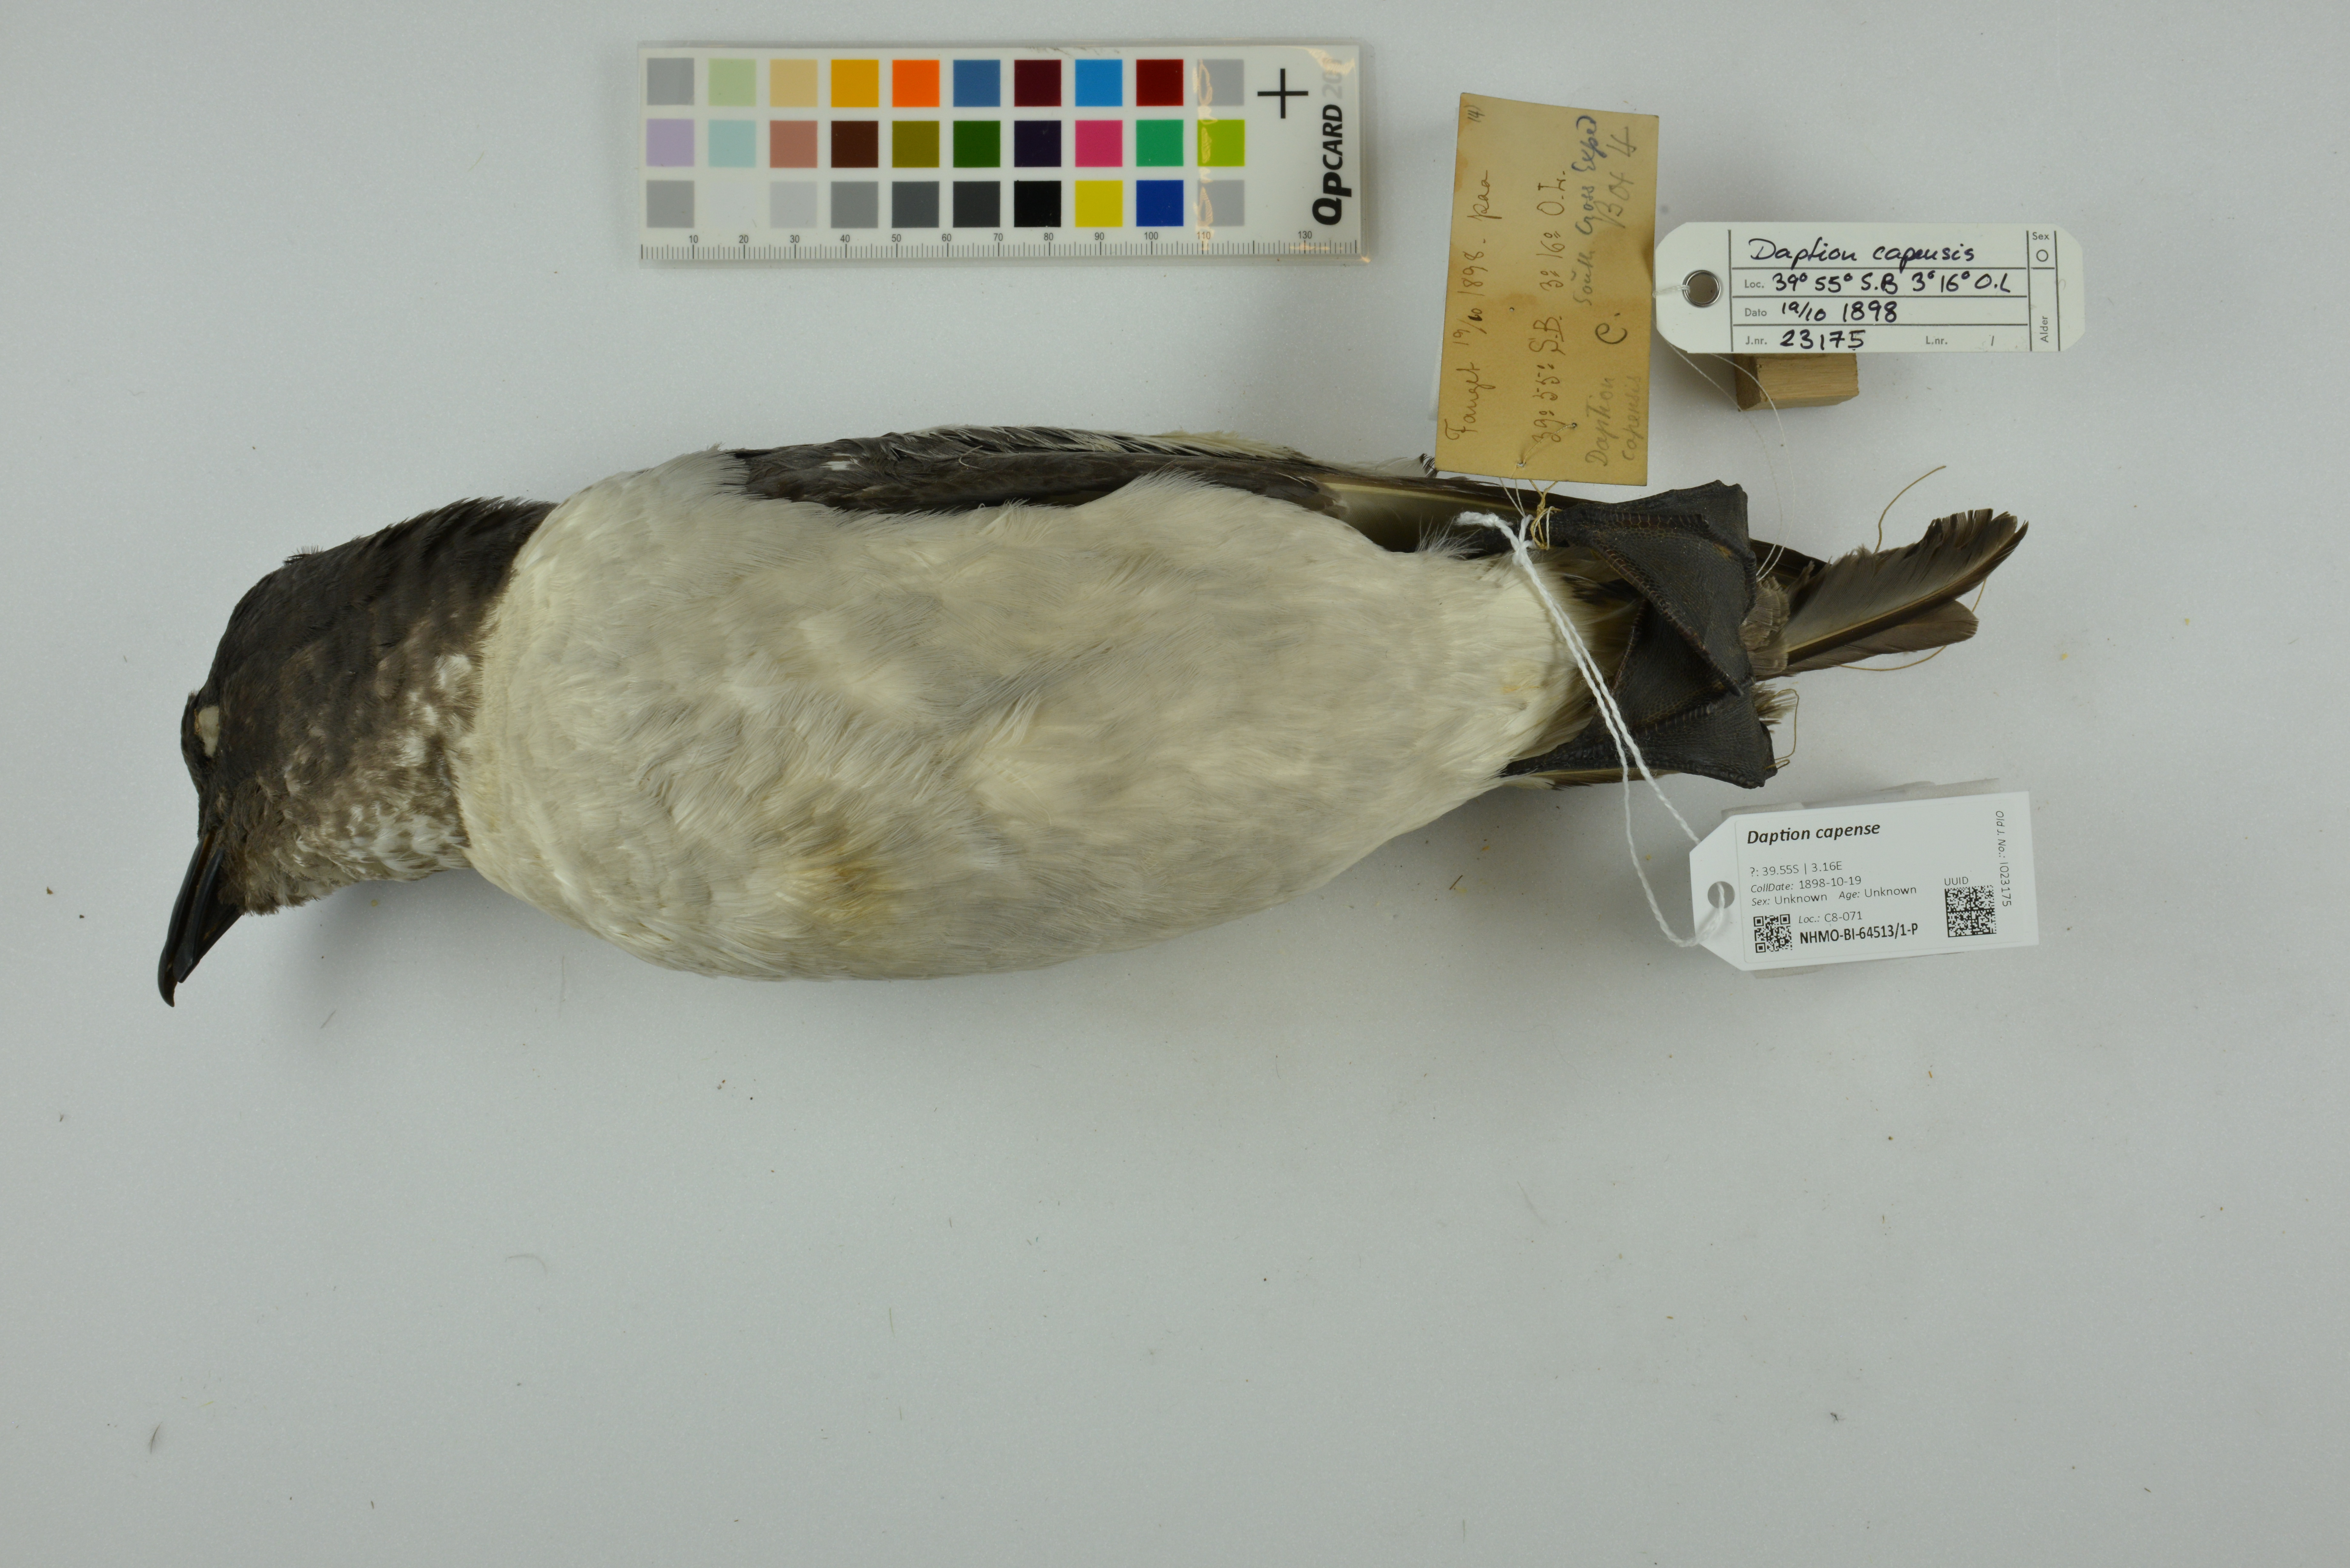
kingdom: Animalia
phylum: Chordata
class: Aves
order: Procellariiformes
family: Procellariidae
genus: Daption
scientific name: Daption capense
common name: Cape petrel
